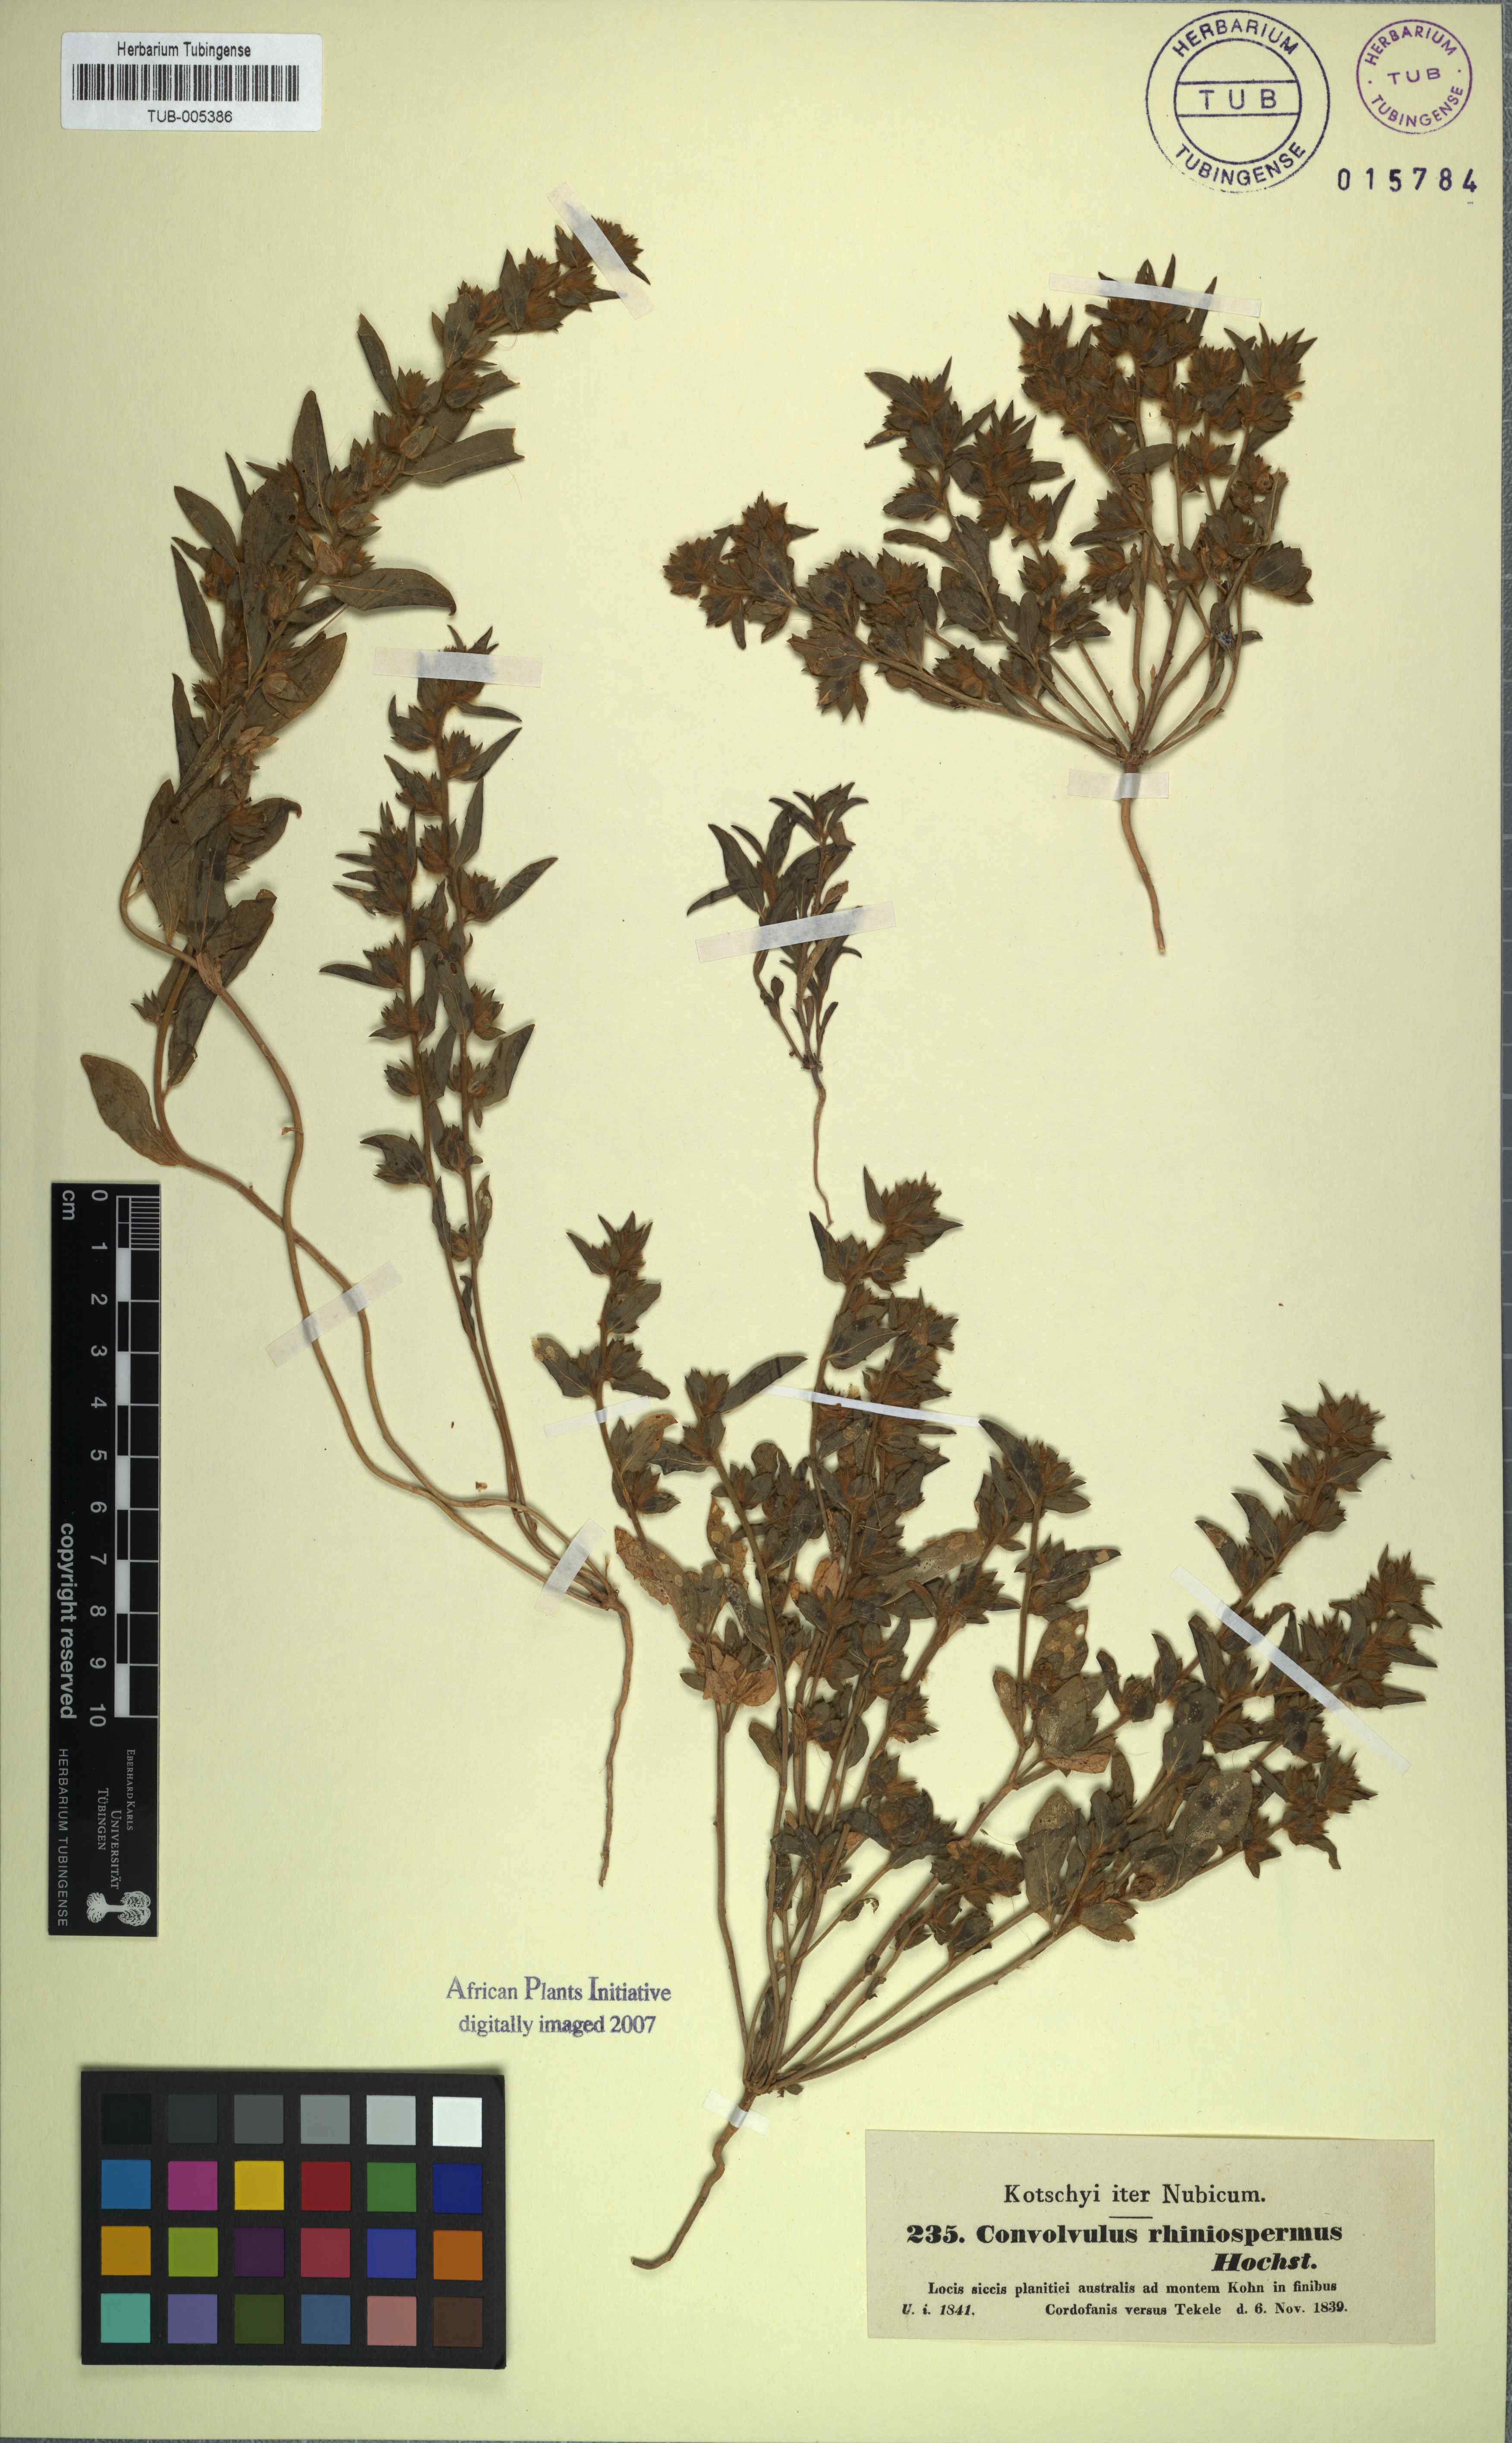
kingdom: Plantae
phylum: Tracheophyta
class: Magnoliopsida
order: Solanales
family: Convolvulaceae
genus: Convolvulus
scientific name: Convolvulus rhyniospermus
